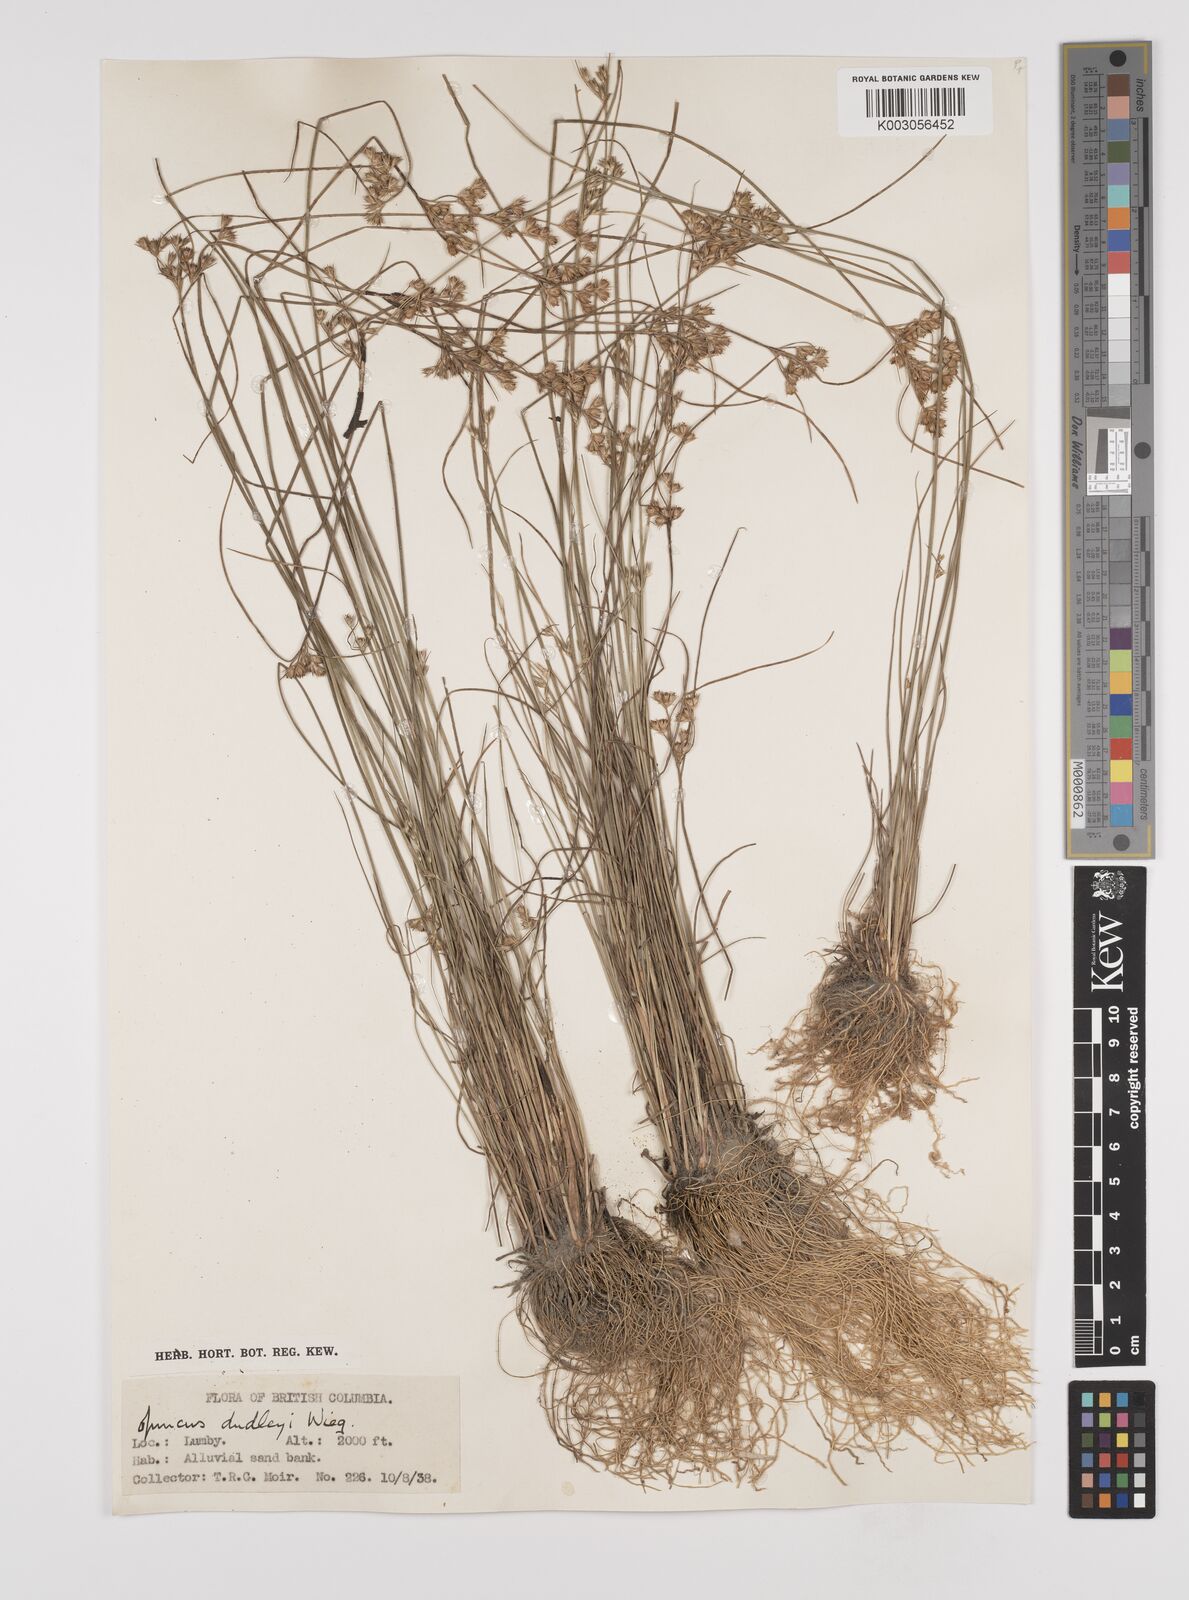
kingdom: Plantae
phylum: Tracheophyta
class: Liliopsida
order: Poales
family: Juncaceae
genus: Juncus
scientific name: Juncus dudleyi
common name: Dudley's rush
